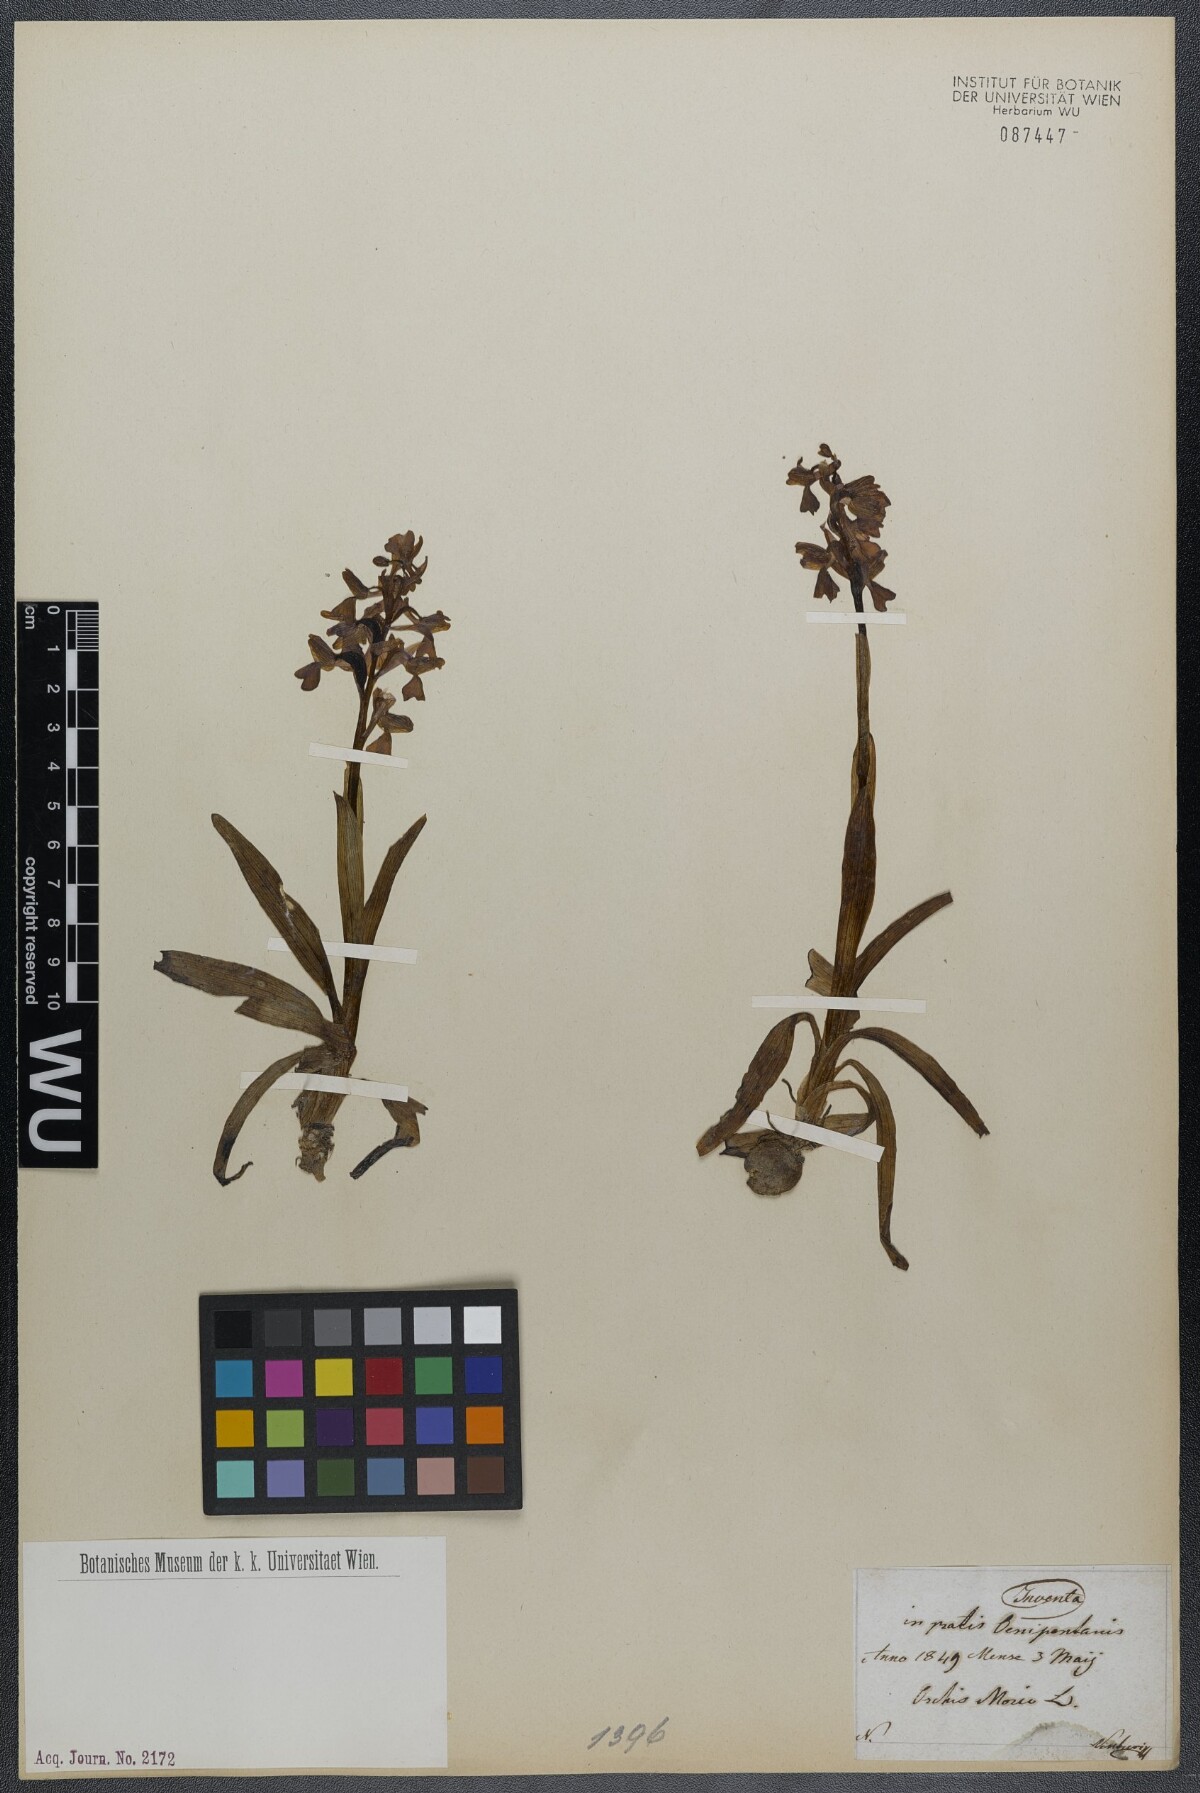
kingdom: Plantae
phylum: Tracheophyta
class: Liliopsida
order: Asparagales
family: Orchidaceae
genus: Anacamptis
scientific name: Anacamptis morio
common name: Green-winged orchid
